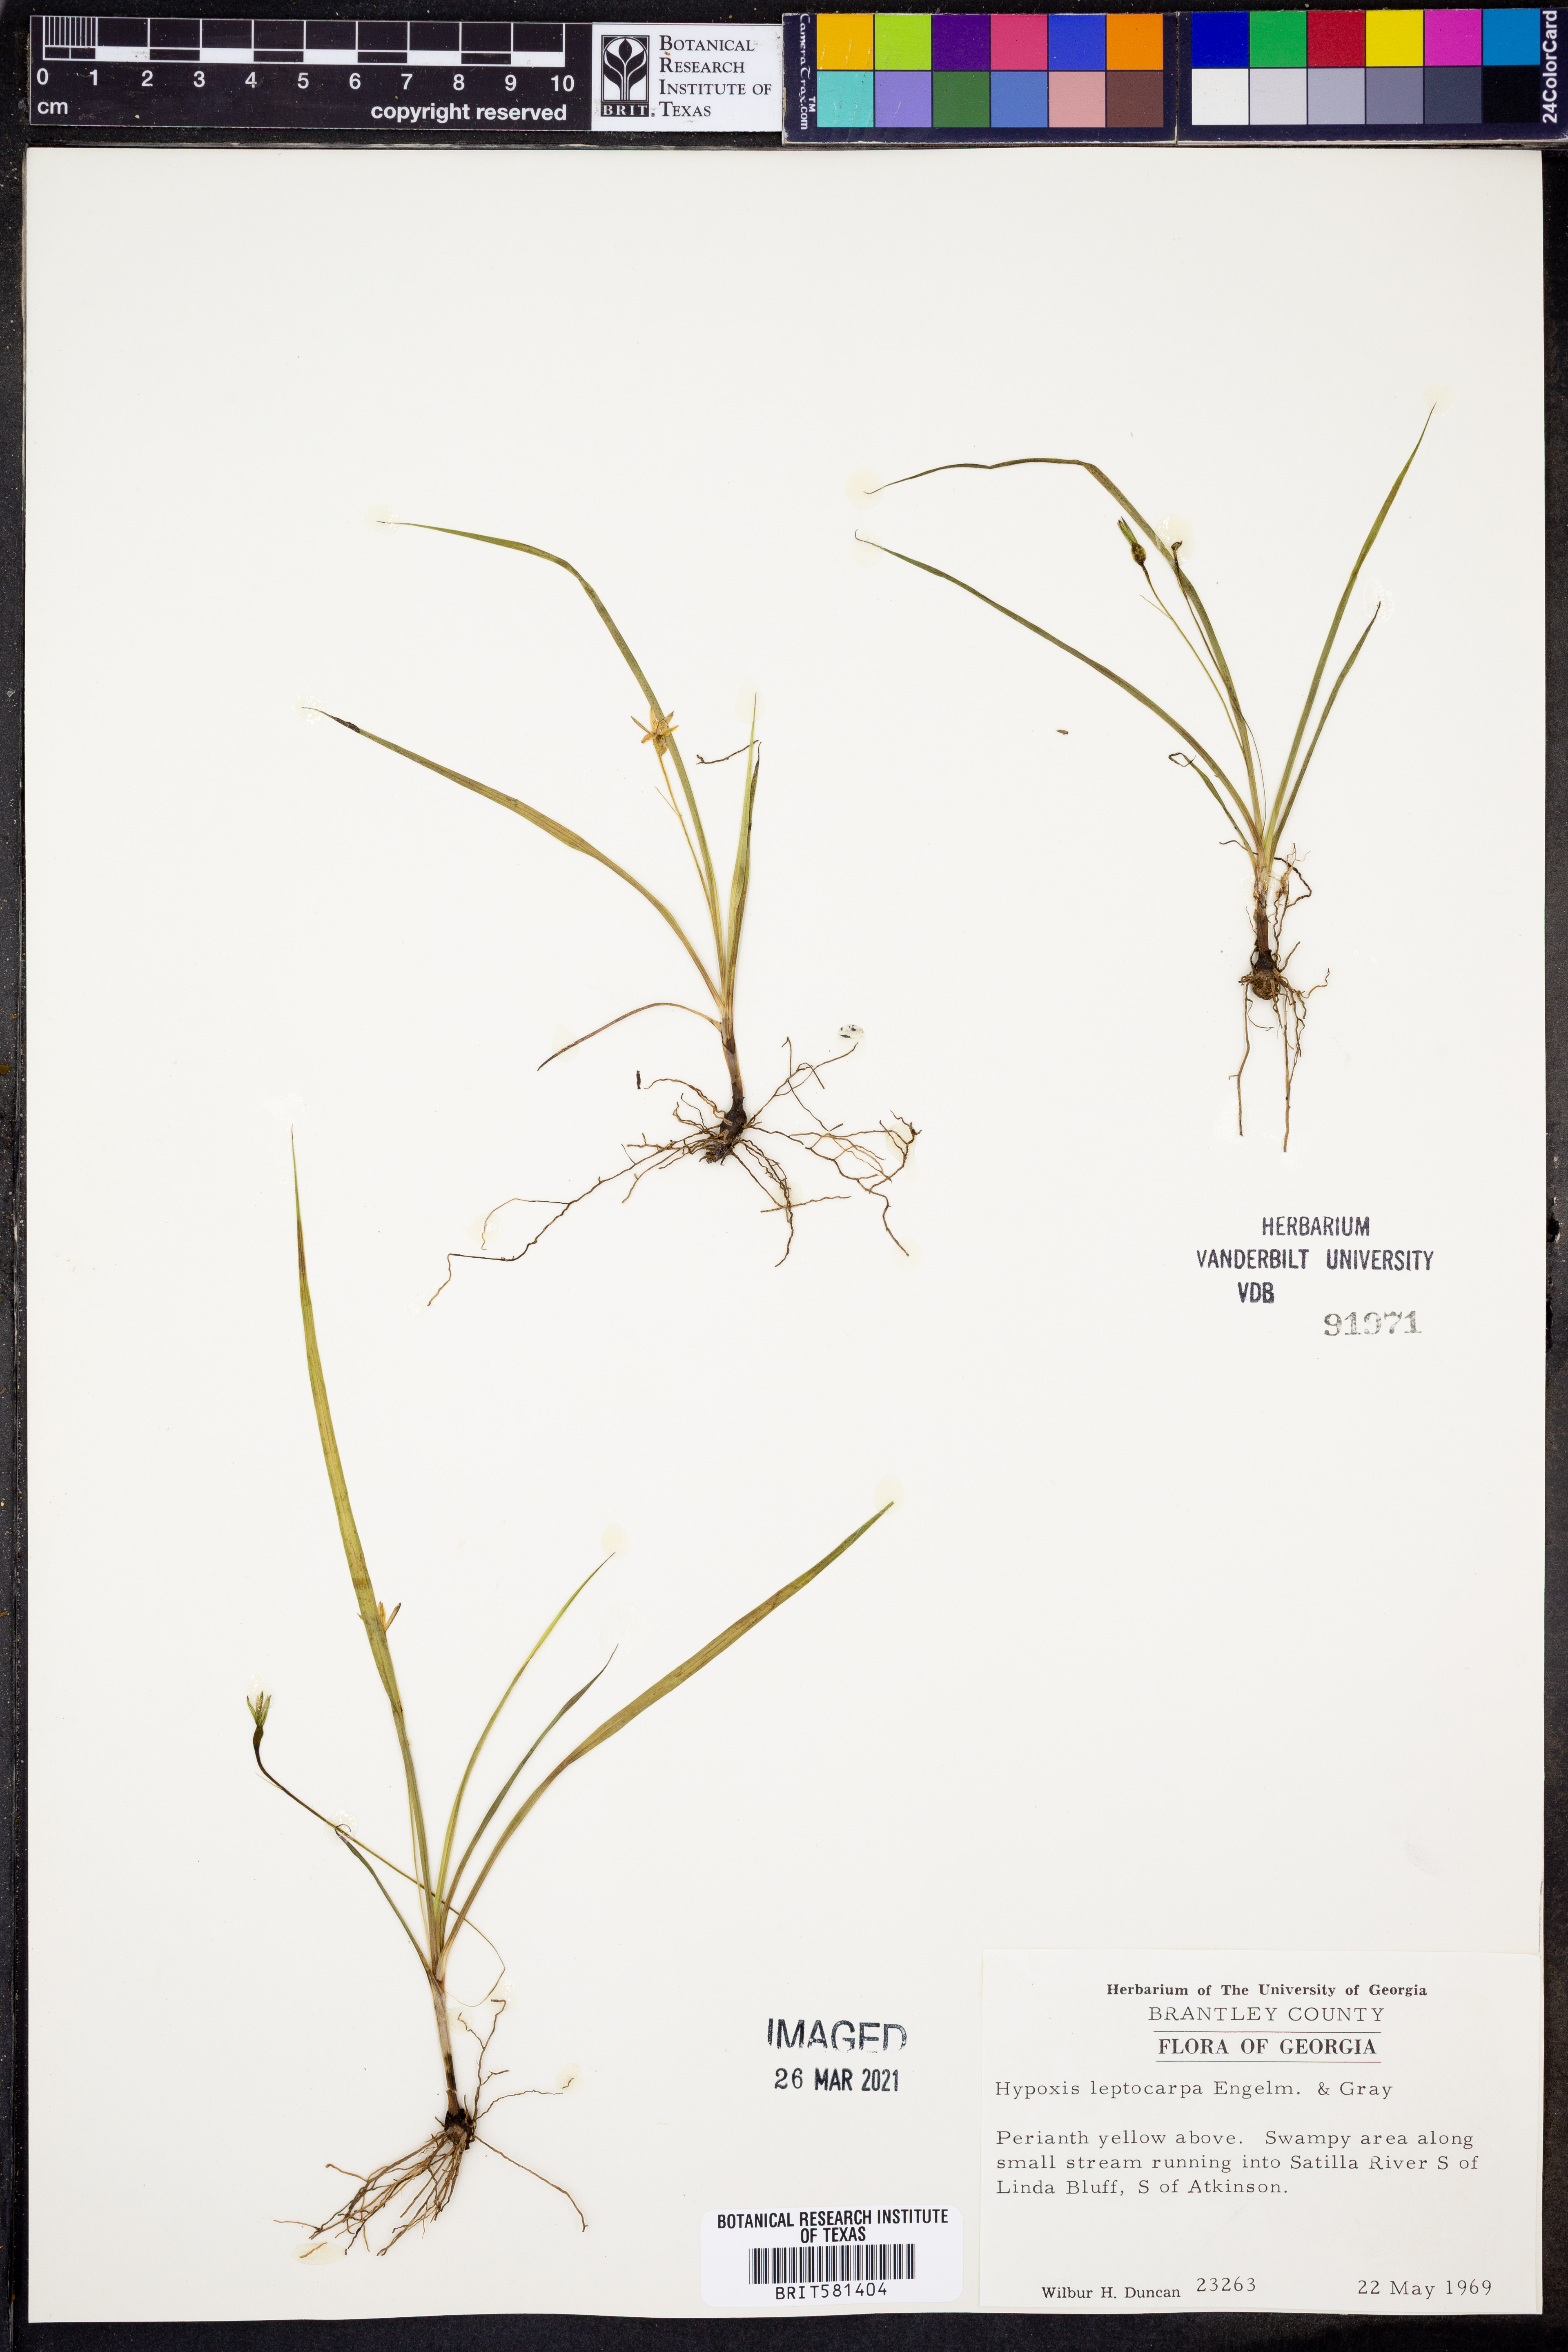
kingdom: Plantae
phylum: Tracheophyta
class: Liliopsida
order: Asparagales
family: Hypoxidaceae
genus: Hypoxis
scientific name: Hypoxis curtissii
